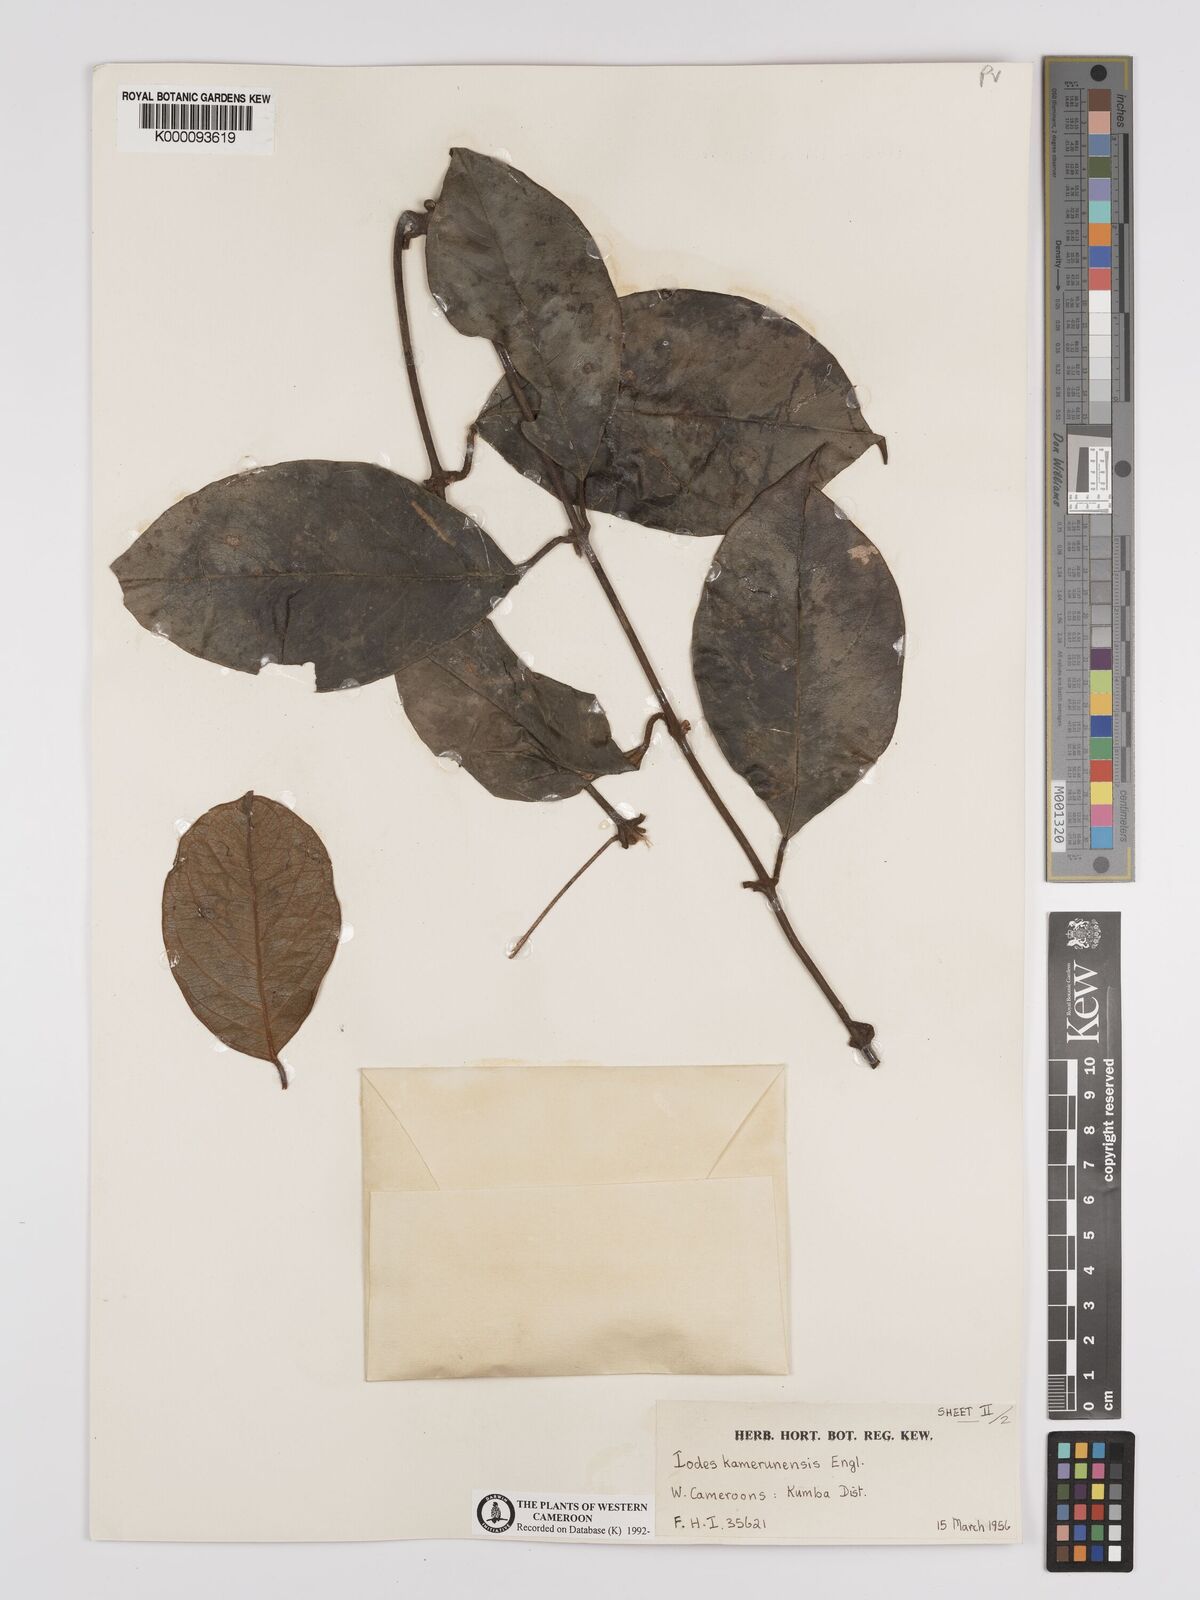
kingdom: Plantae
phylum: Tracheophyta
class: Magnoliopsida
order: Icacinales
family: Icacinaceae
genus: Iodes
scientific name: Iodes kamerunensis
